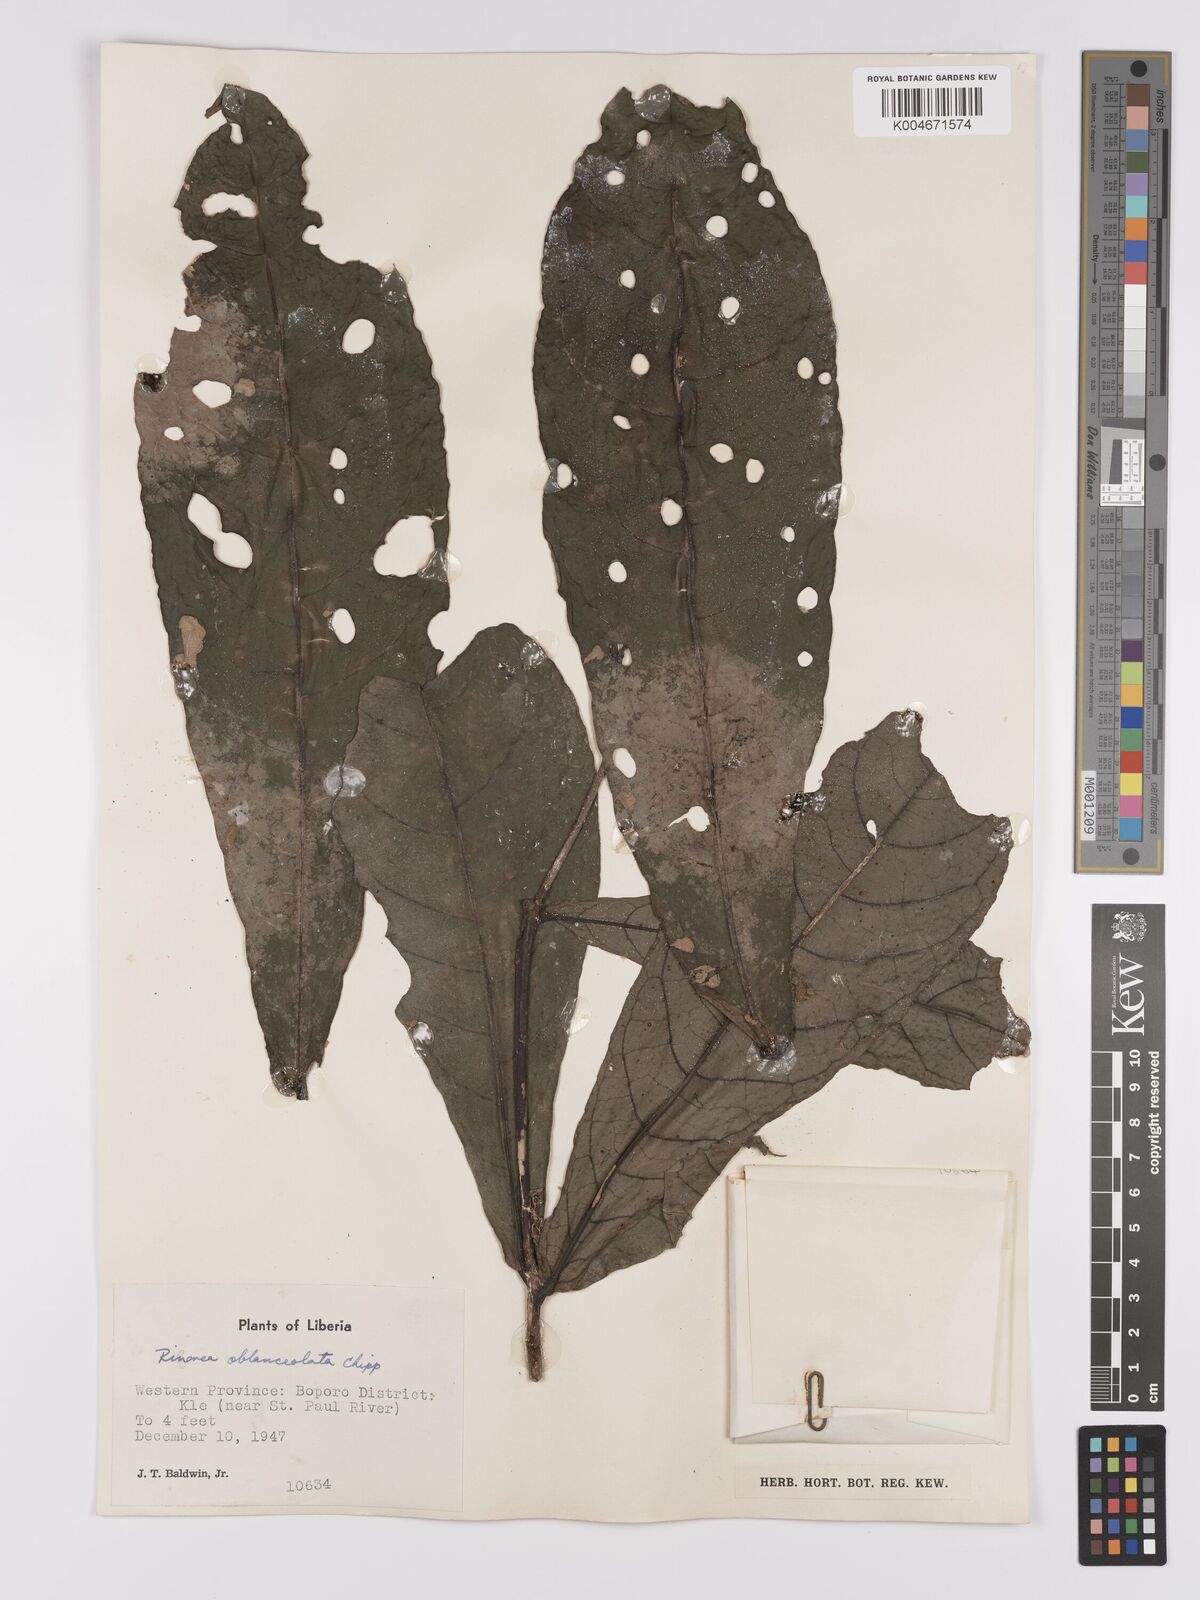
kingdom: Plantae
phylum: Tracheophyta
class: Magnoliopsida
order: Malpighiales
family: Violaceae
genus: Rinorea
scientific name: Rinorea oblanceolata
